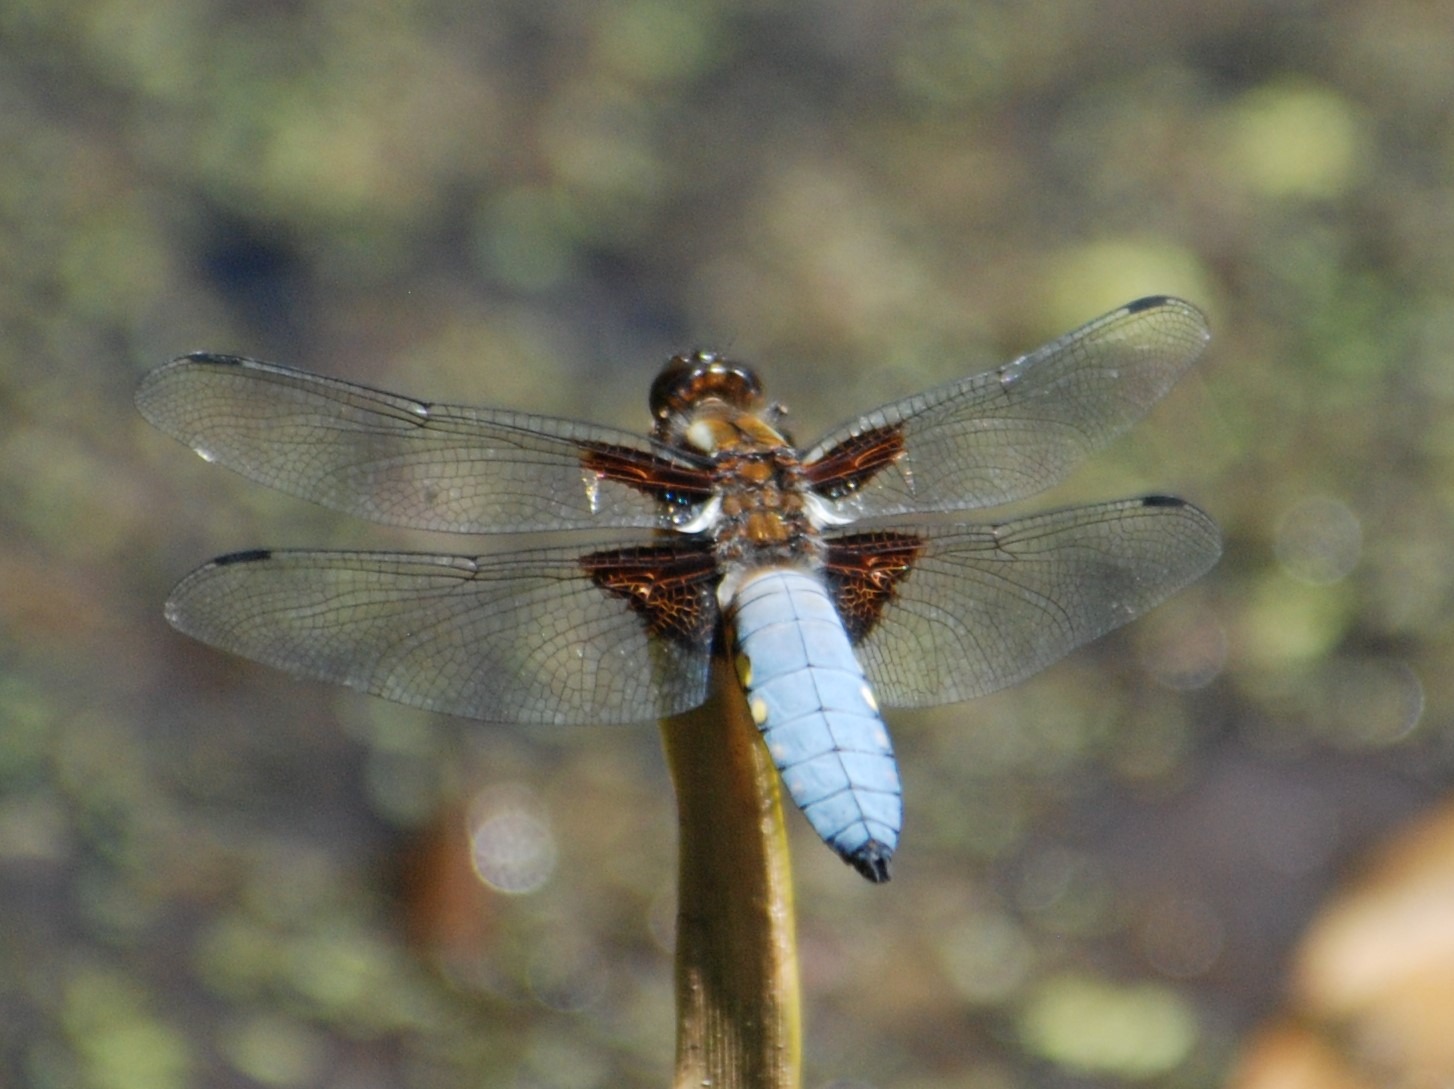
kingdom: Animalia
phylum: Arthropoda
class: Insecta
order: Odonata
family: Libellulidae
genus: Libellula
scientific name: Libellula depressa
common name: Blå libel
